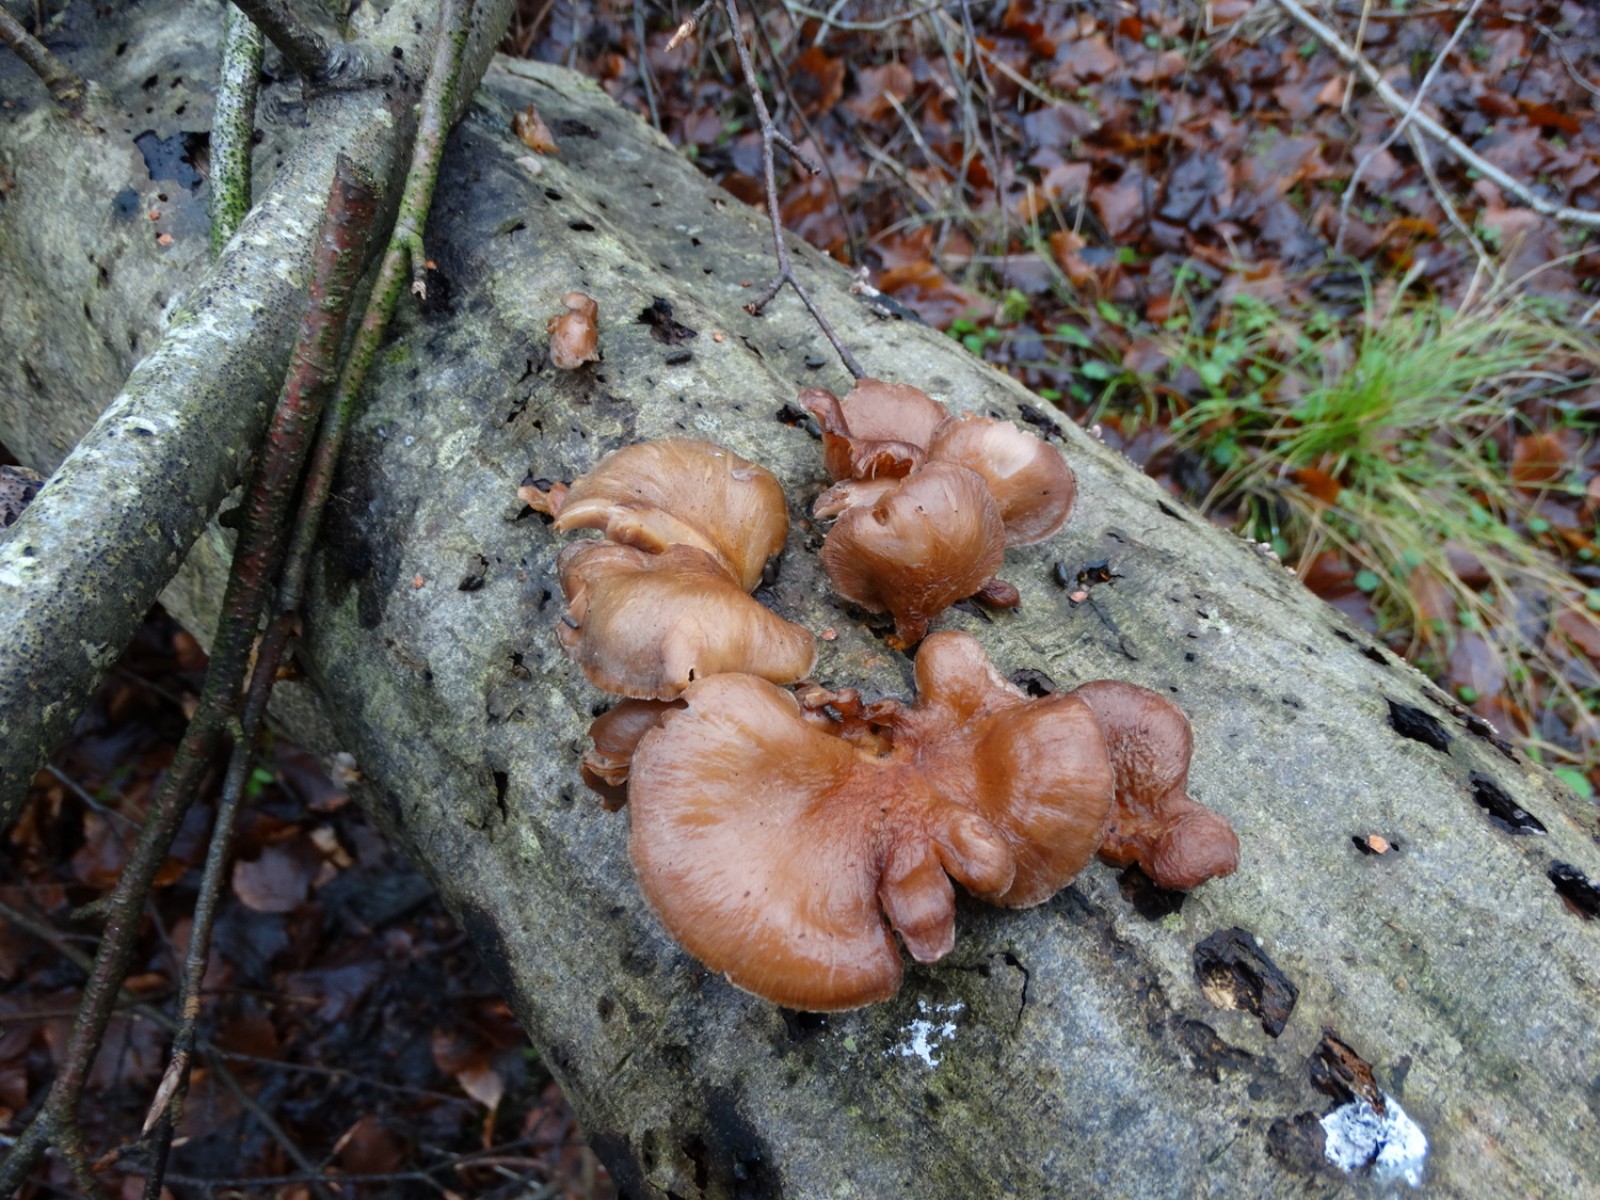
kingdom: Fungi
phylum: Basidiomycota
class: Agaricomycetes
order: Agaricales
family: Sarcomyxaceae
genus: Sarcomyxa
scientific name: Sarcomyxa serotina
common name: gummihat
